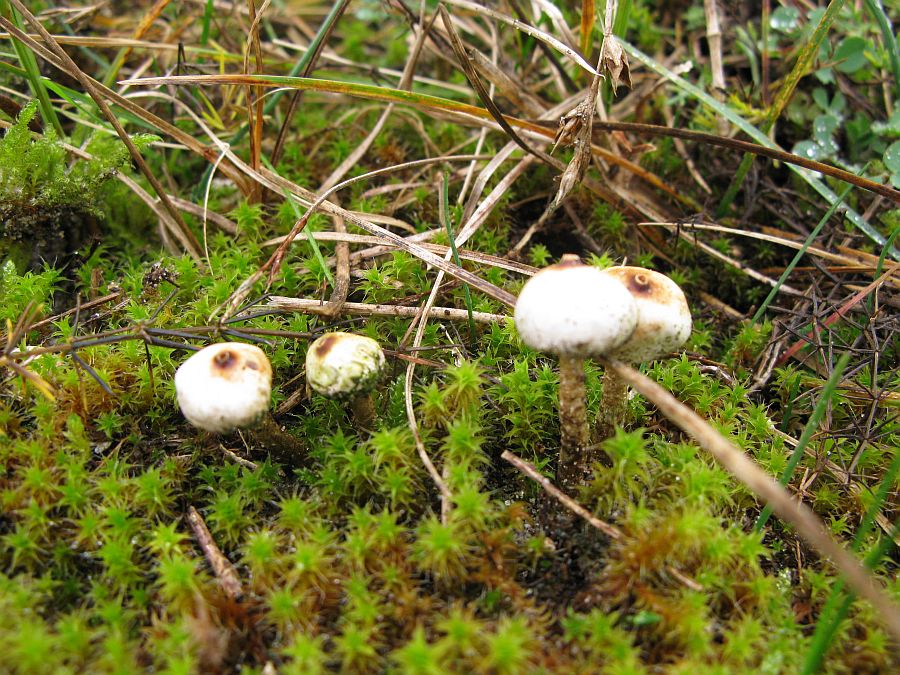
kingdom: Fungi
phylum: Basidiomycota
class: Agaricomycetes
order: Agaricales
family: Agaricaceae
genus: Tulostoma
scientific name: Tulostoma brumale
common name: vinter-stilkbovist
